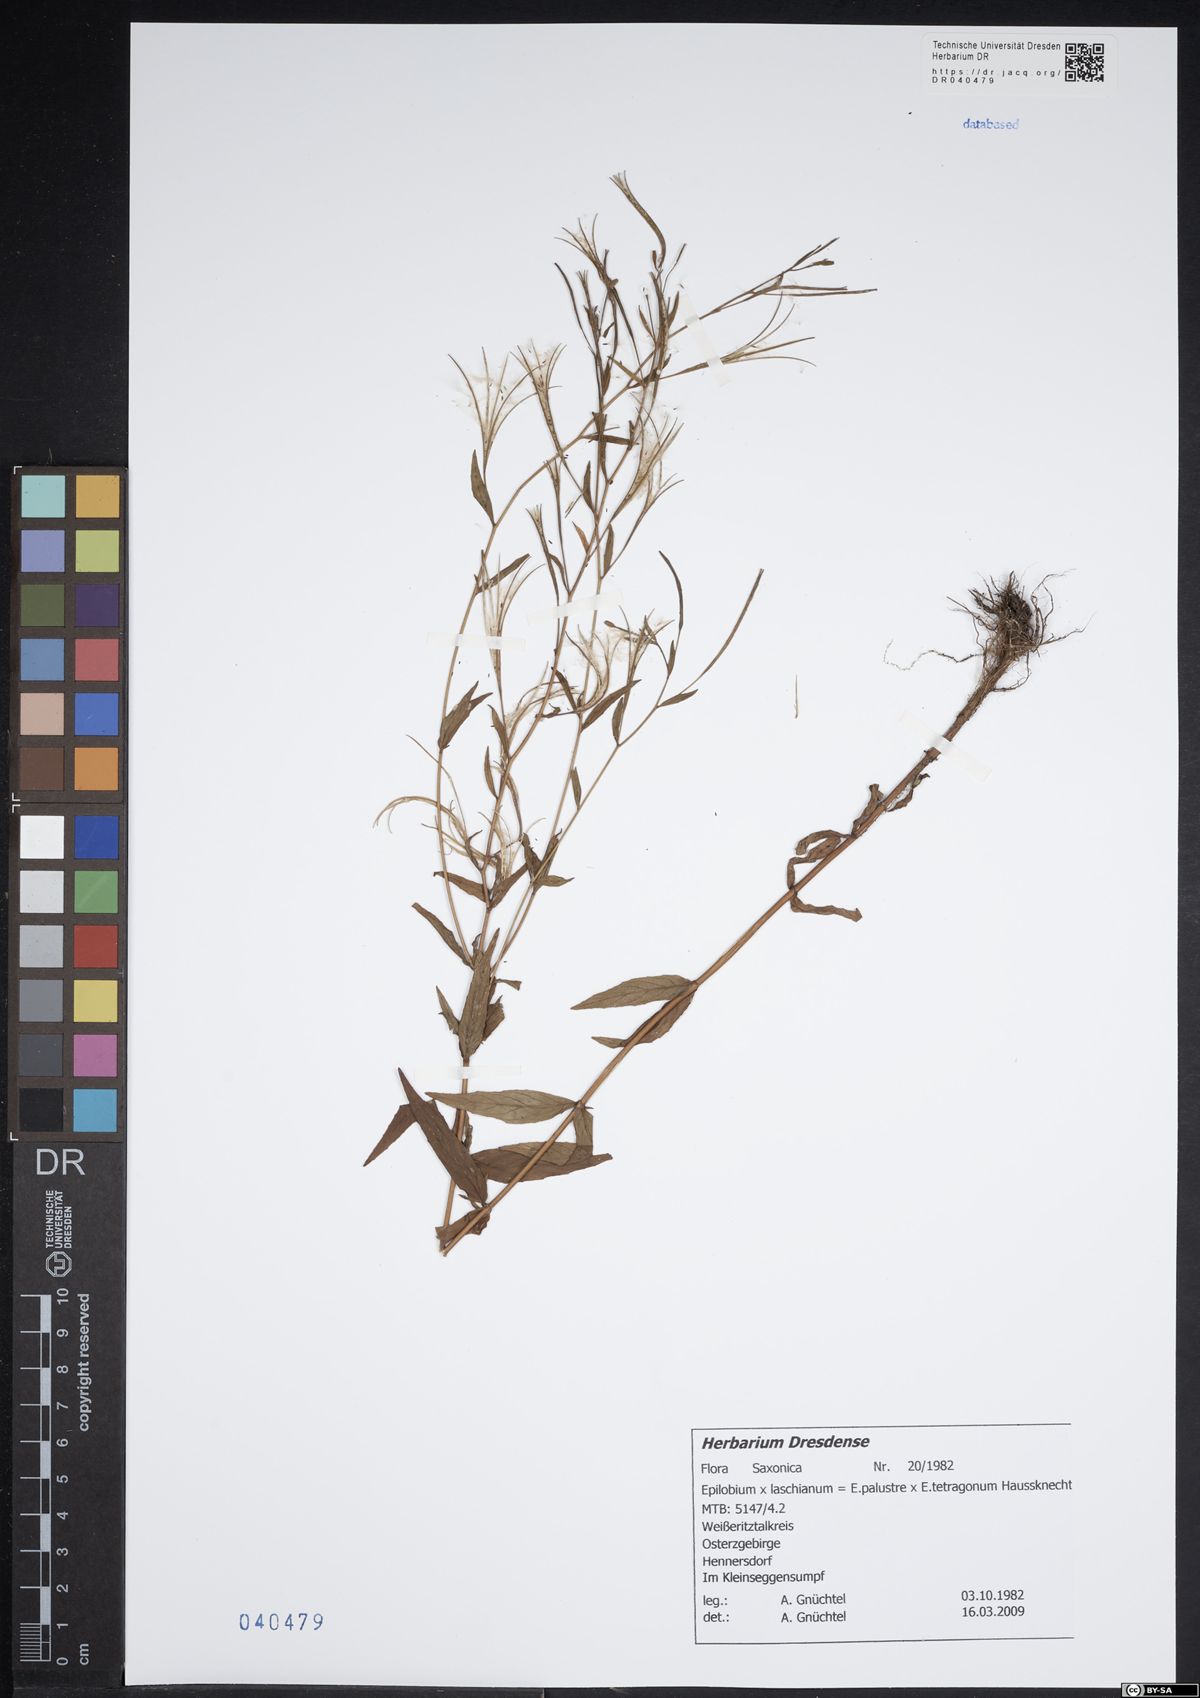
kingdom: Plantae
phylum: Tracheophyta
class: Magnoliopsida
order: Myrtales
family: Onagraceae
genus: Epilobium
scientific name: Epilobium laschianum
